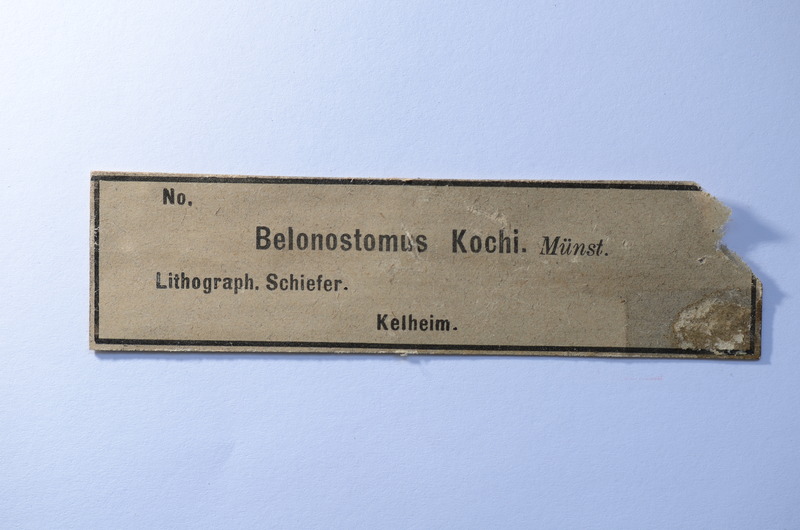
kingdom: Animalia
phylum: Chordata
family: Aspidorhynchidae
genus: Belonostomus
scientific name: Belonostomus kochii
